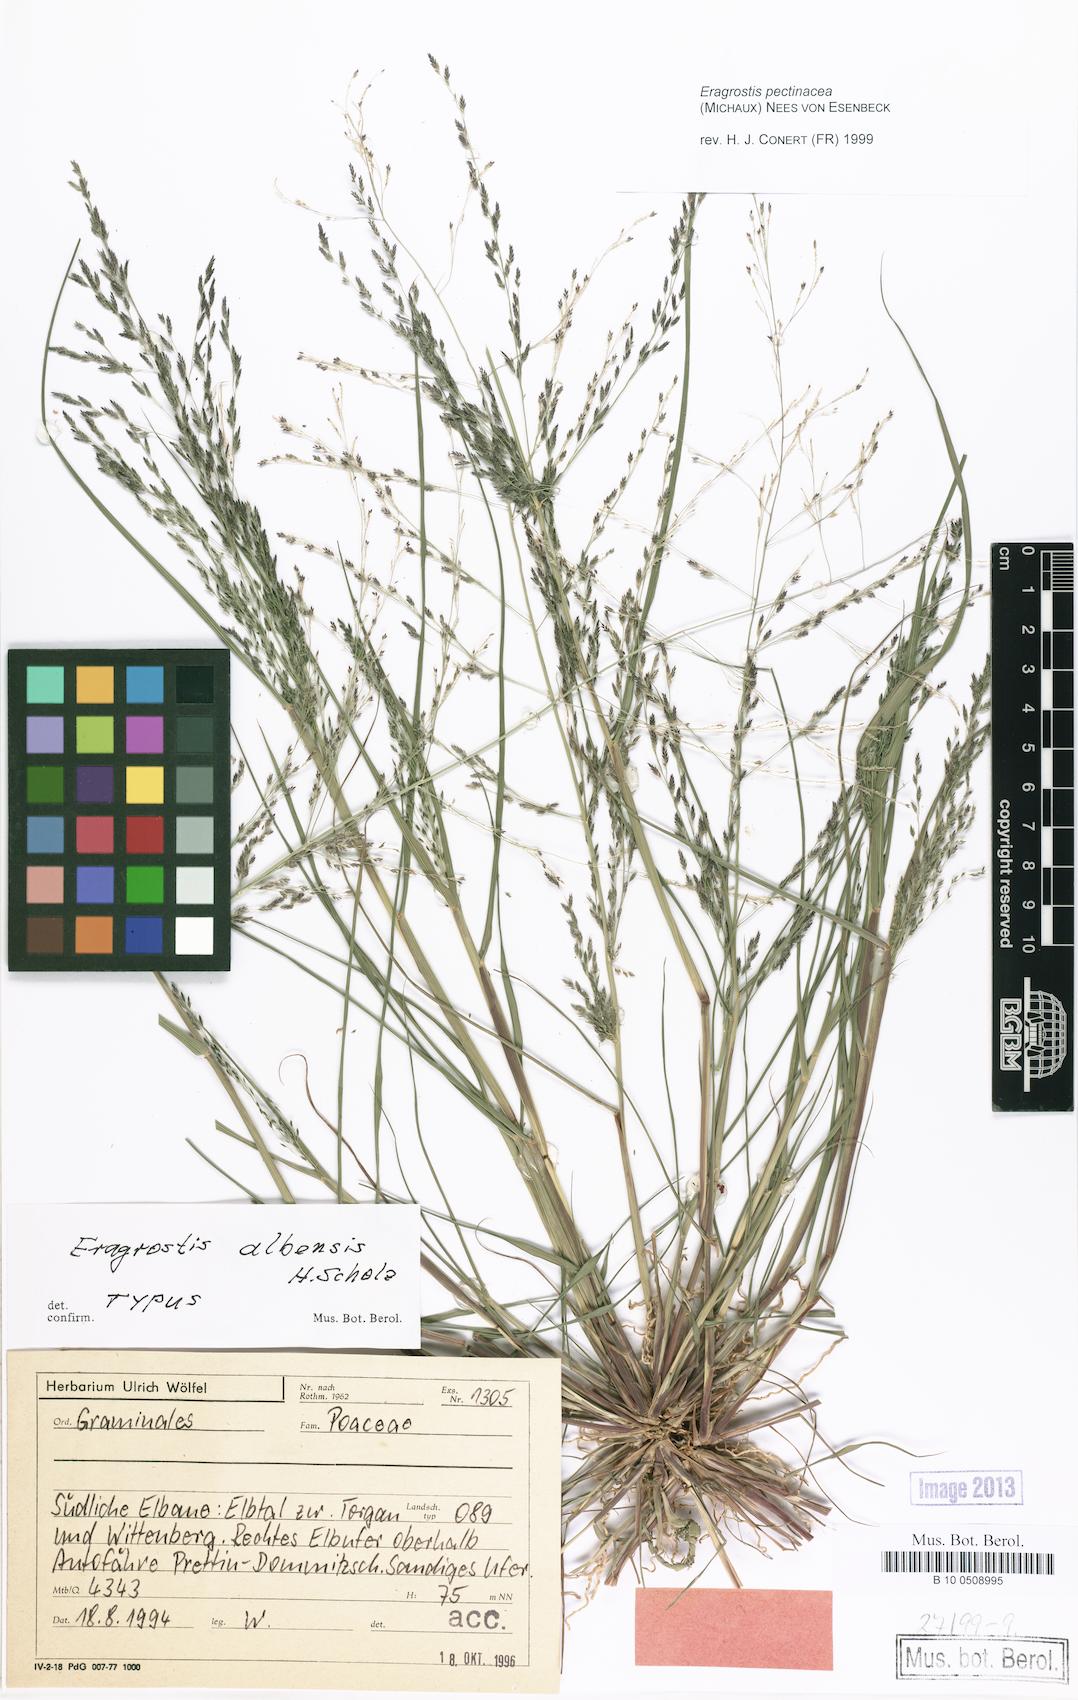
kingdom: Plantae
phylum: Tracheophyta
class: Liliopsida
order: Poales
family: Poaceae
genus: Eragrostis
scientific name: Eragrostis pilosa
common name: Indian lovegrass
